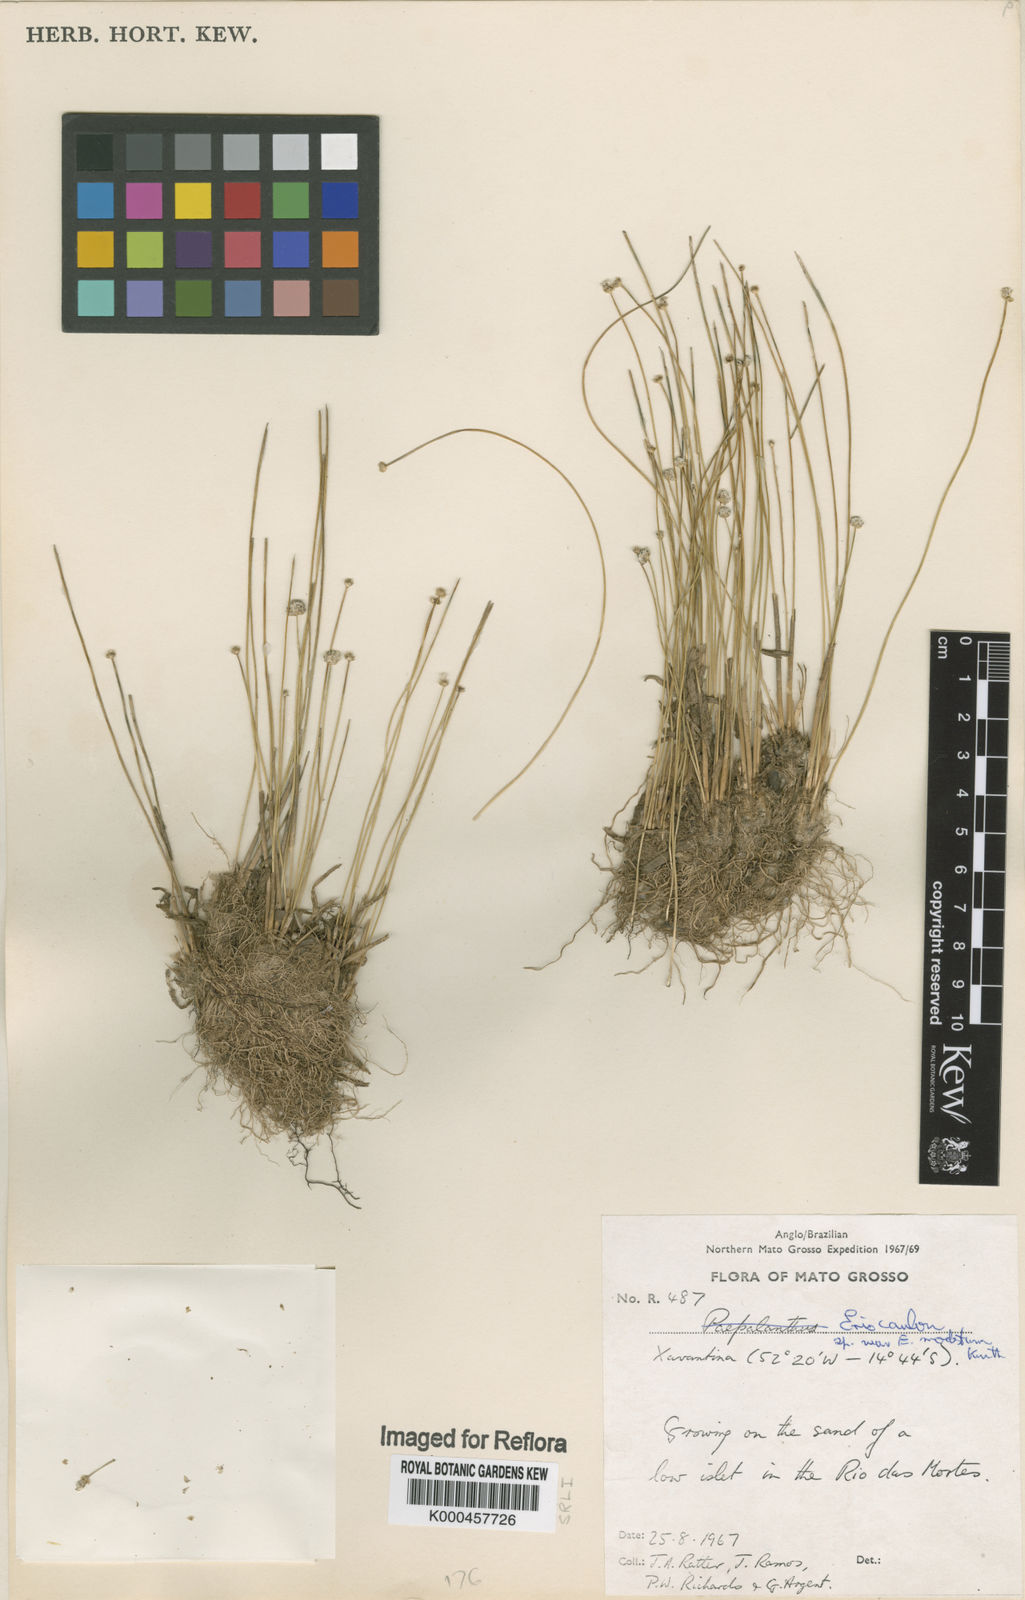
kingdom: Plantae
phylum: Tracheophyta
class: Liliopsida
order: Poales
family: Eriocaulaceae
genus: Eriocaulon
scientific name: Eriocaulon
